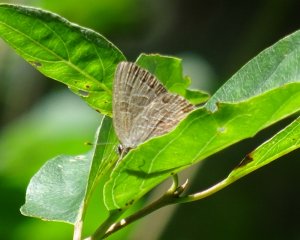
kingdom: Animalia
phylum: Arthropoda
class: Insecta
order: Lepidoptera
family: Lycaenidae
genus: Satyrium
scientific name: Satyrium liparops
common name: Striped Hairstreak
